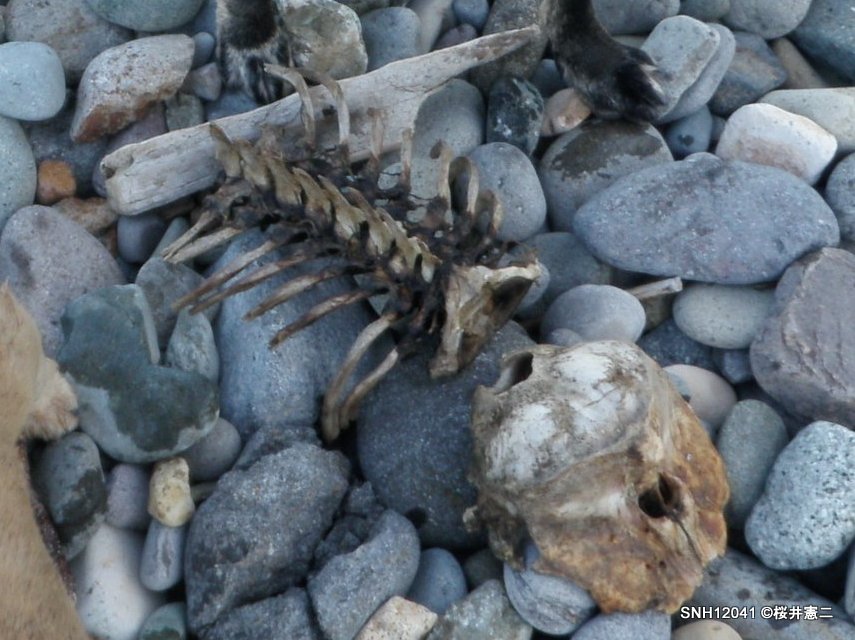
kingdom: Animalia
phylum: Chordata
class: Mammalia
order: Cetacea
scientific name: Cetacea
